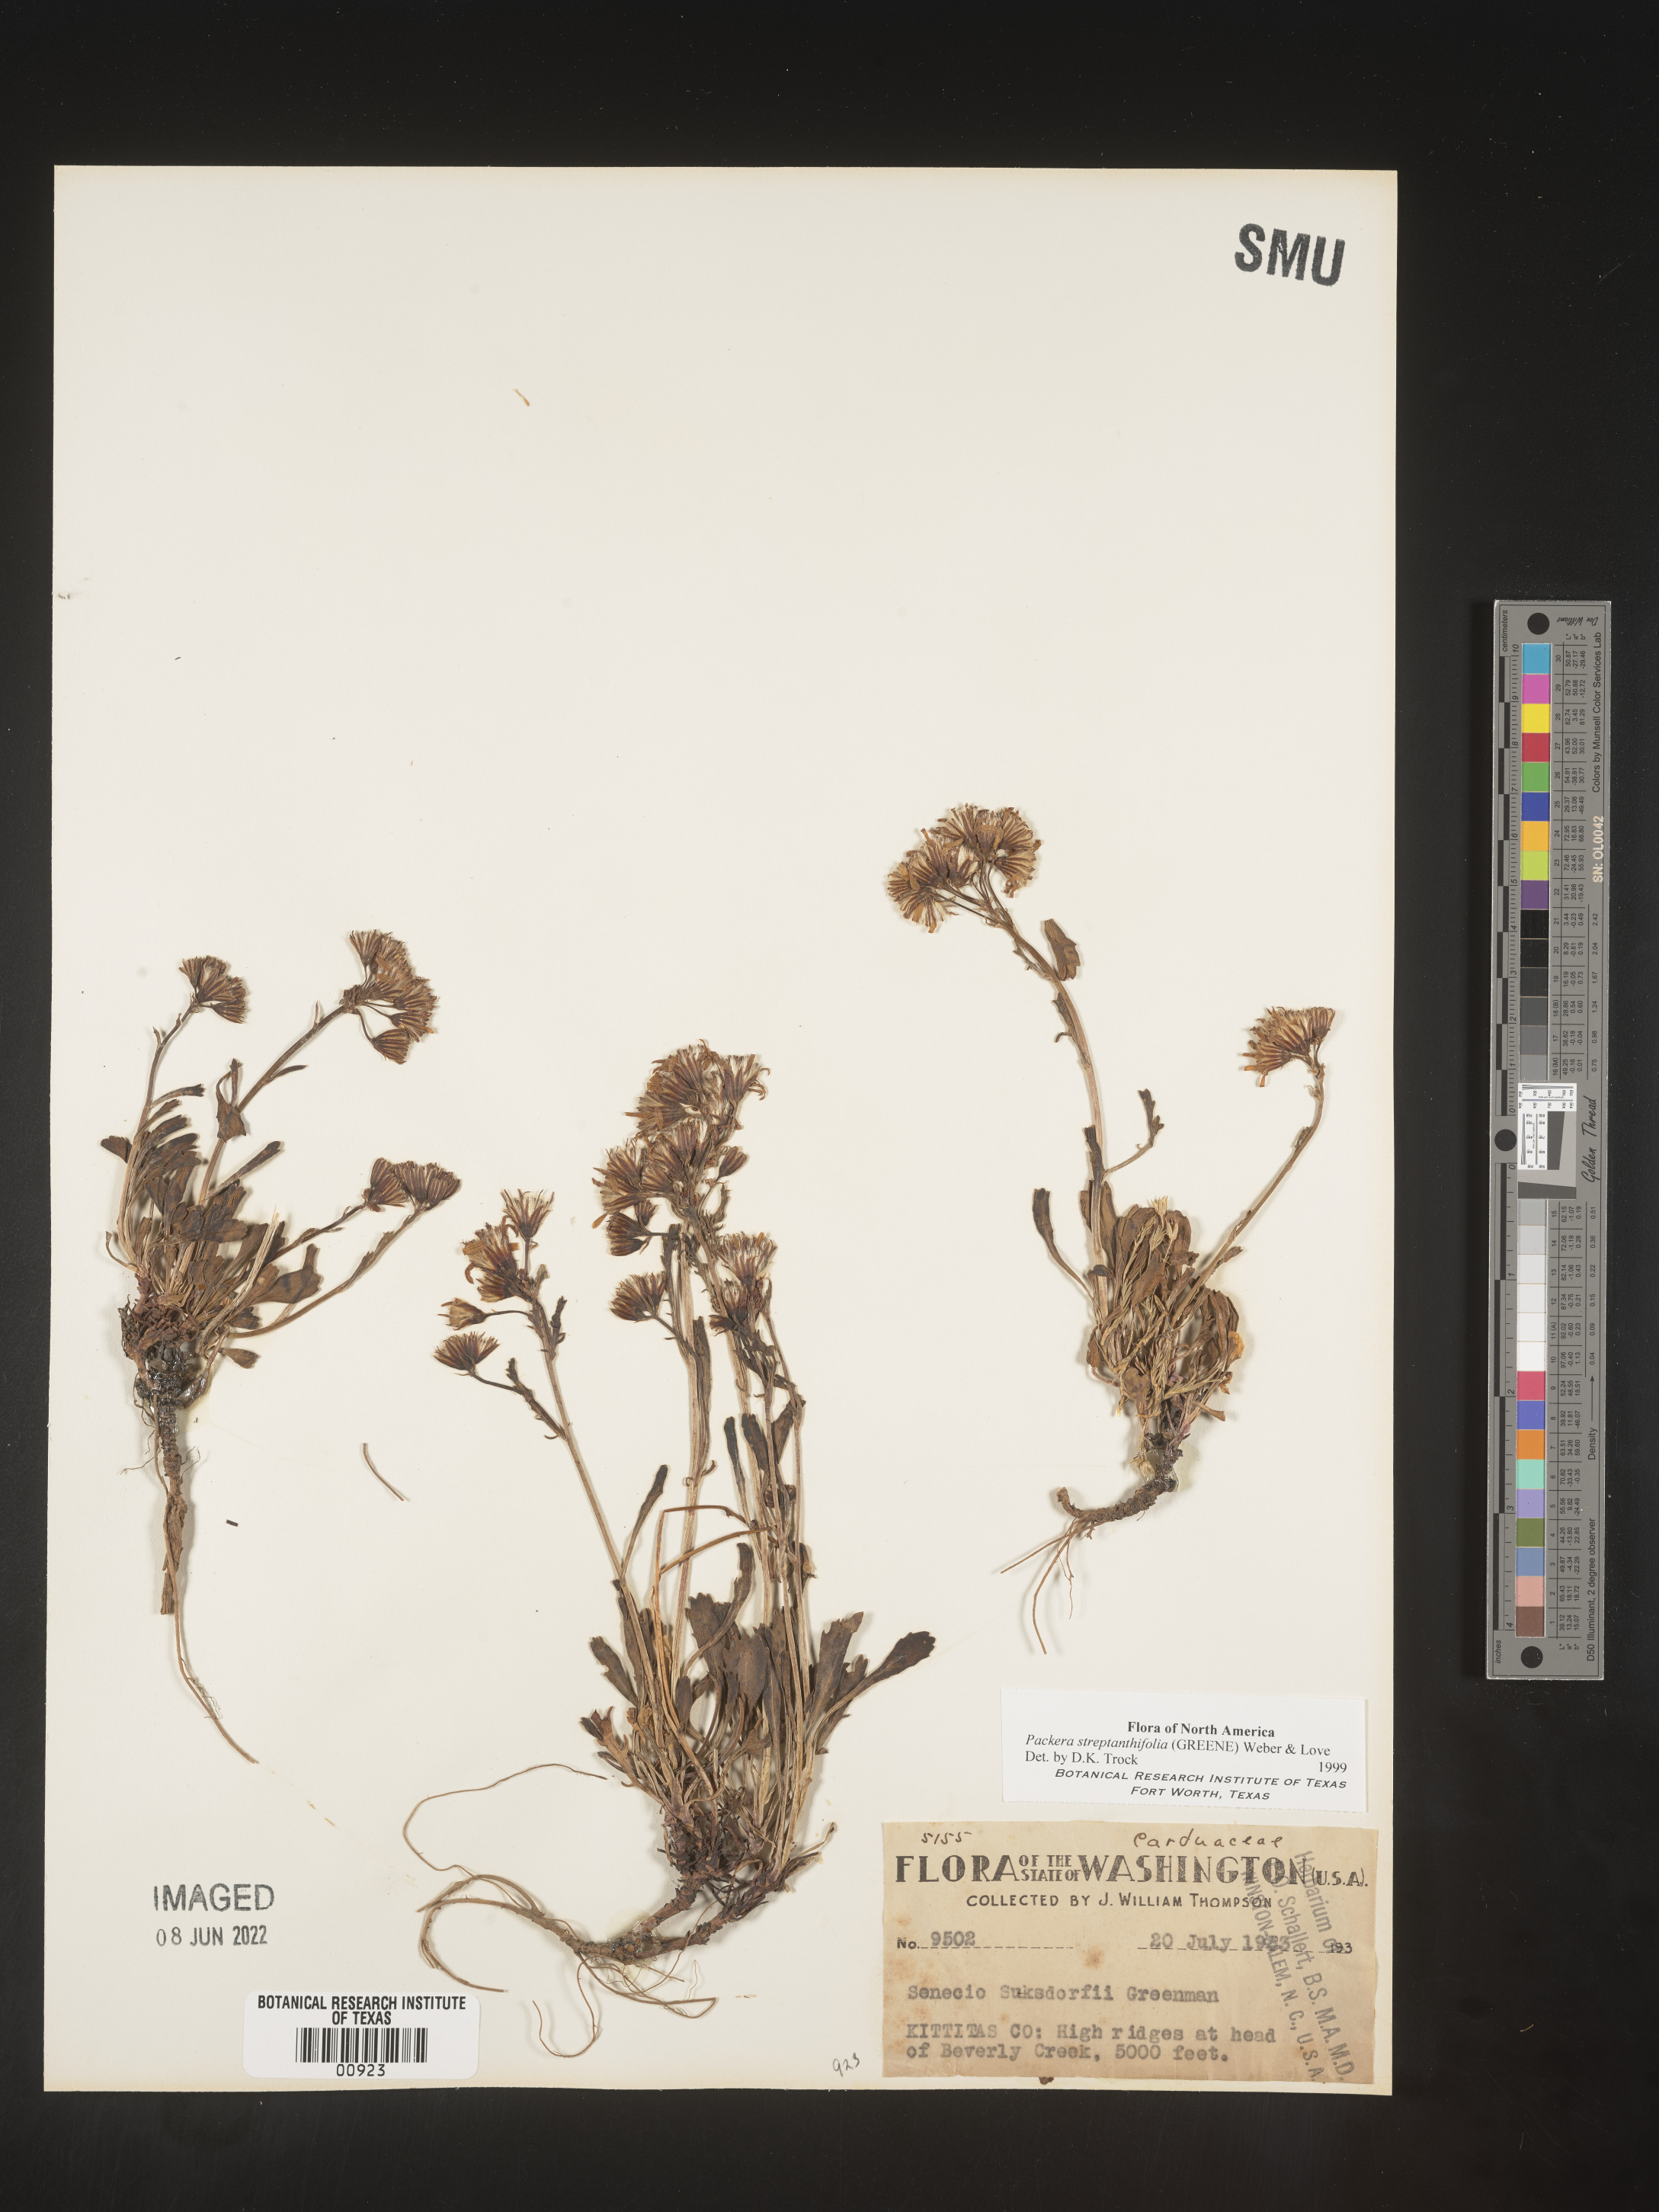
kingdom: Plantae
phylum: Tracheophyta
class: Magnoliopsida
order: Asterales
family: Asteraceae
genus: Packera
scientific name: Packera streptanthifolia
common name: Rocky mountain butterweed
